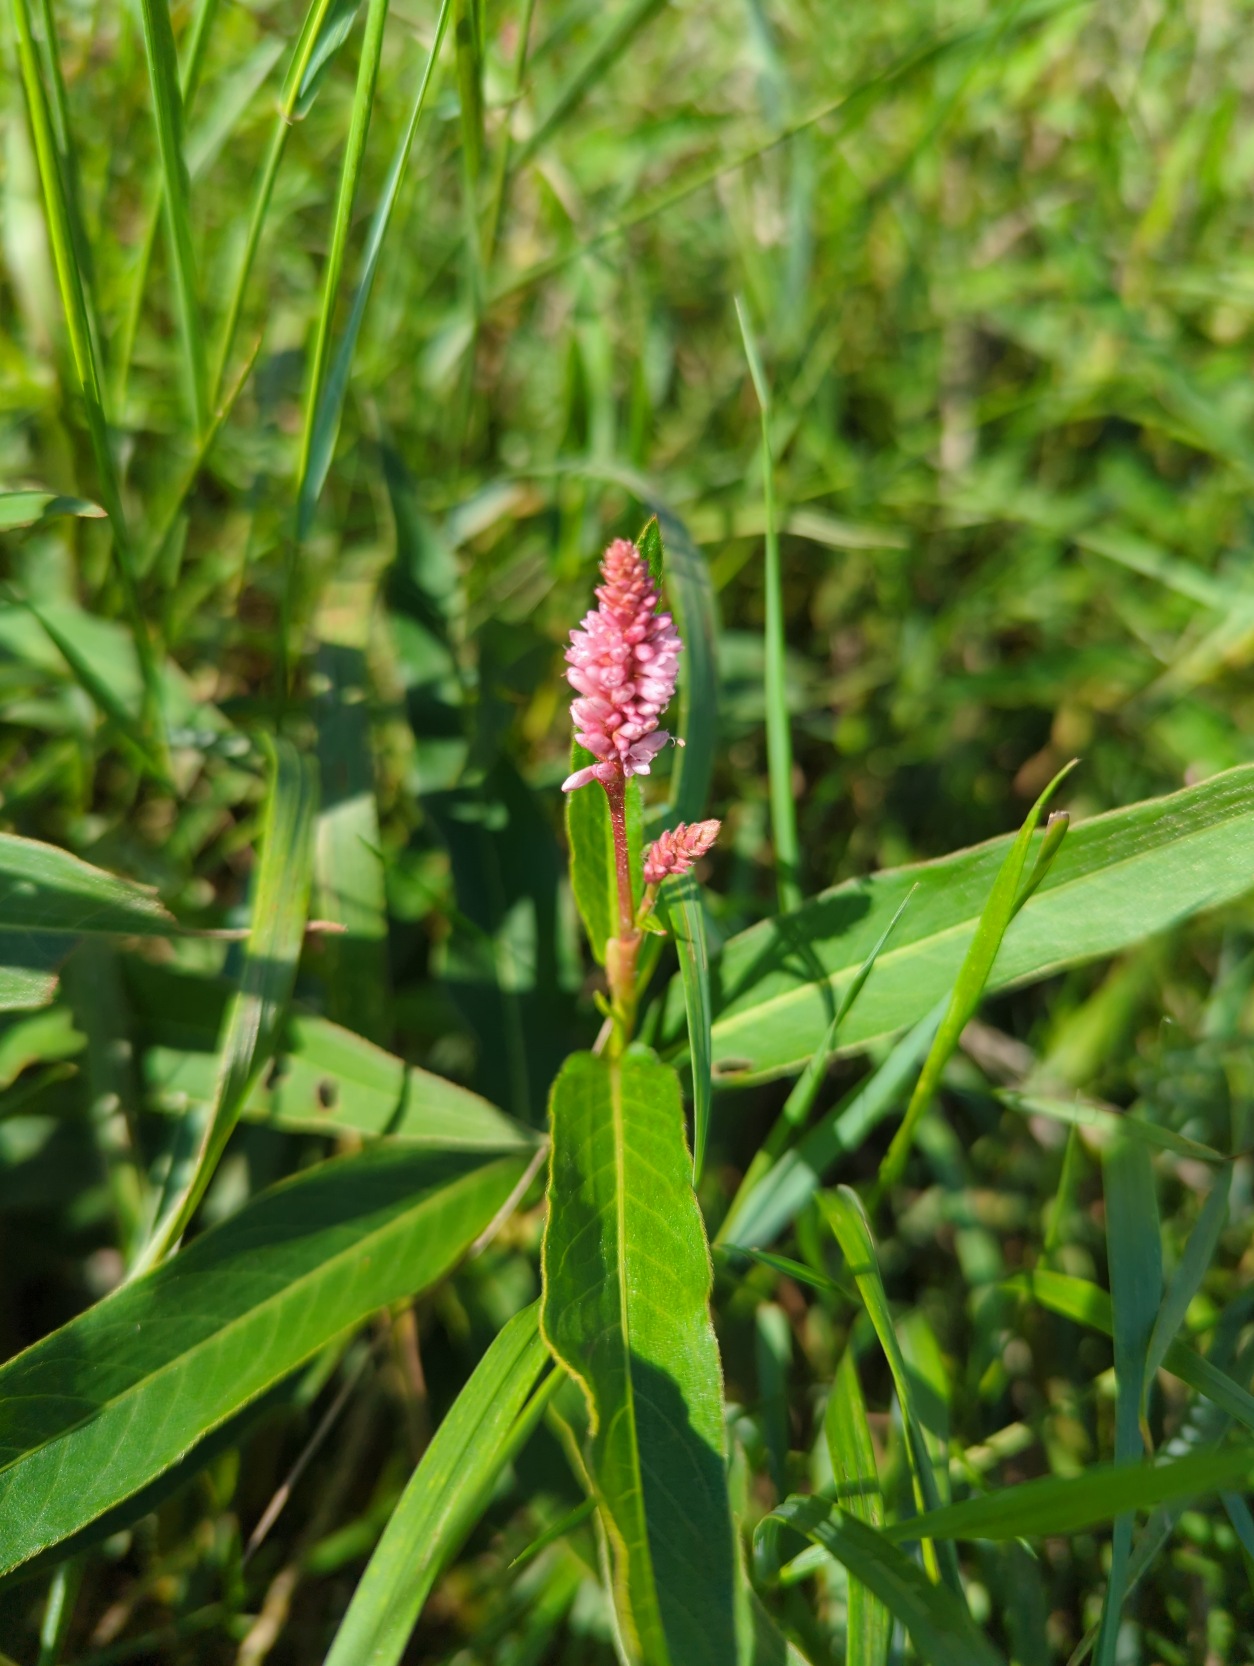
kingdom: Plantae
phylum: Tracheophyta
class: Magnoliopsida
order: Caryophyllales
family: Polygonaceae
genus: Persicaria
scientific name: Persicaria amphibia
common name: Vand-pileurt
